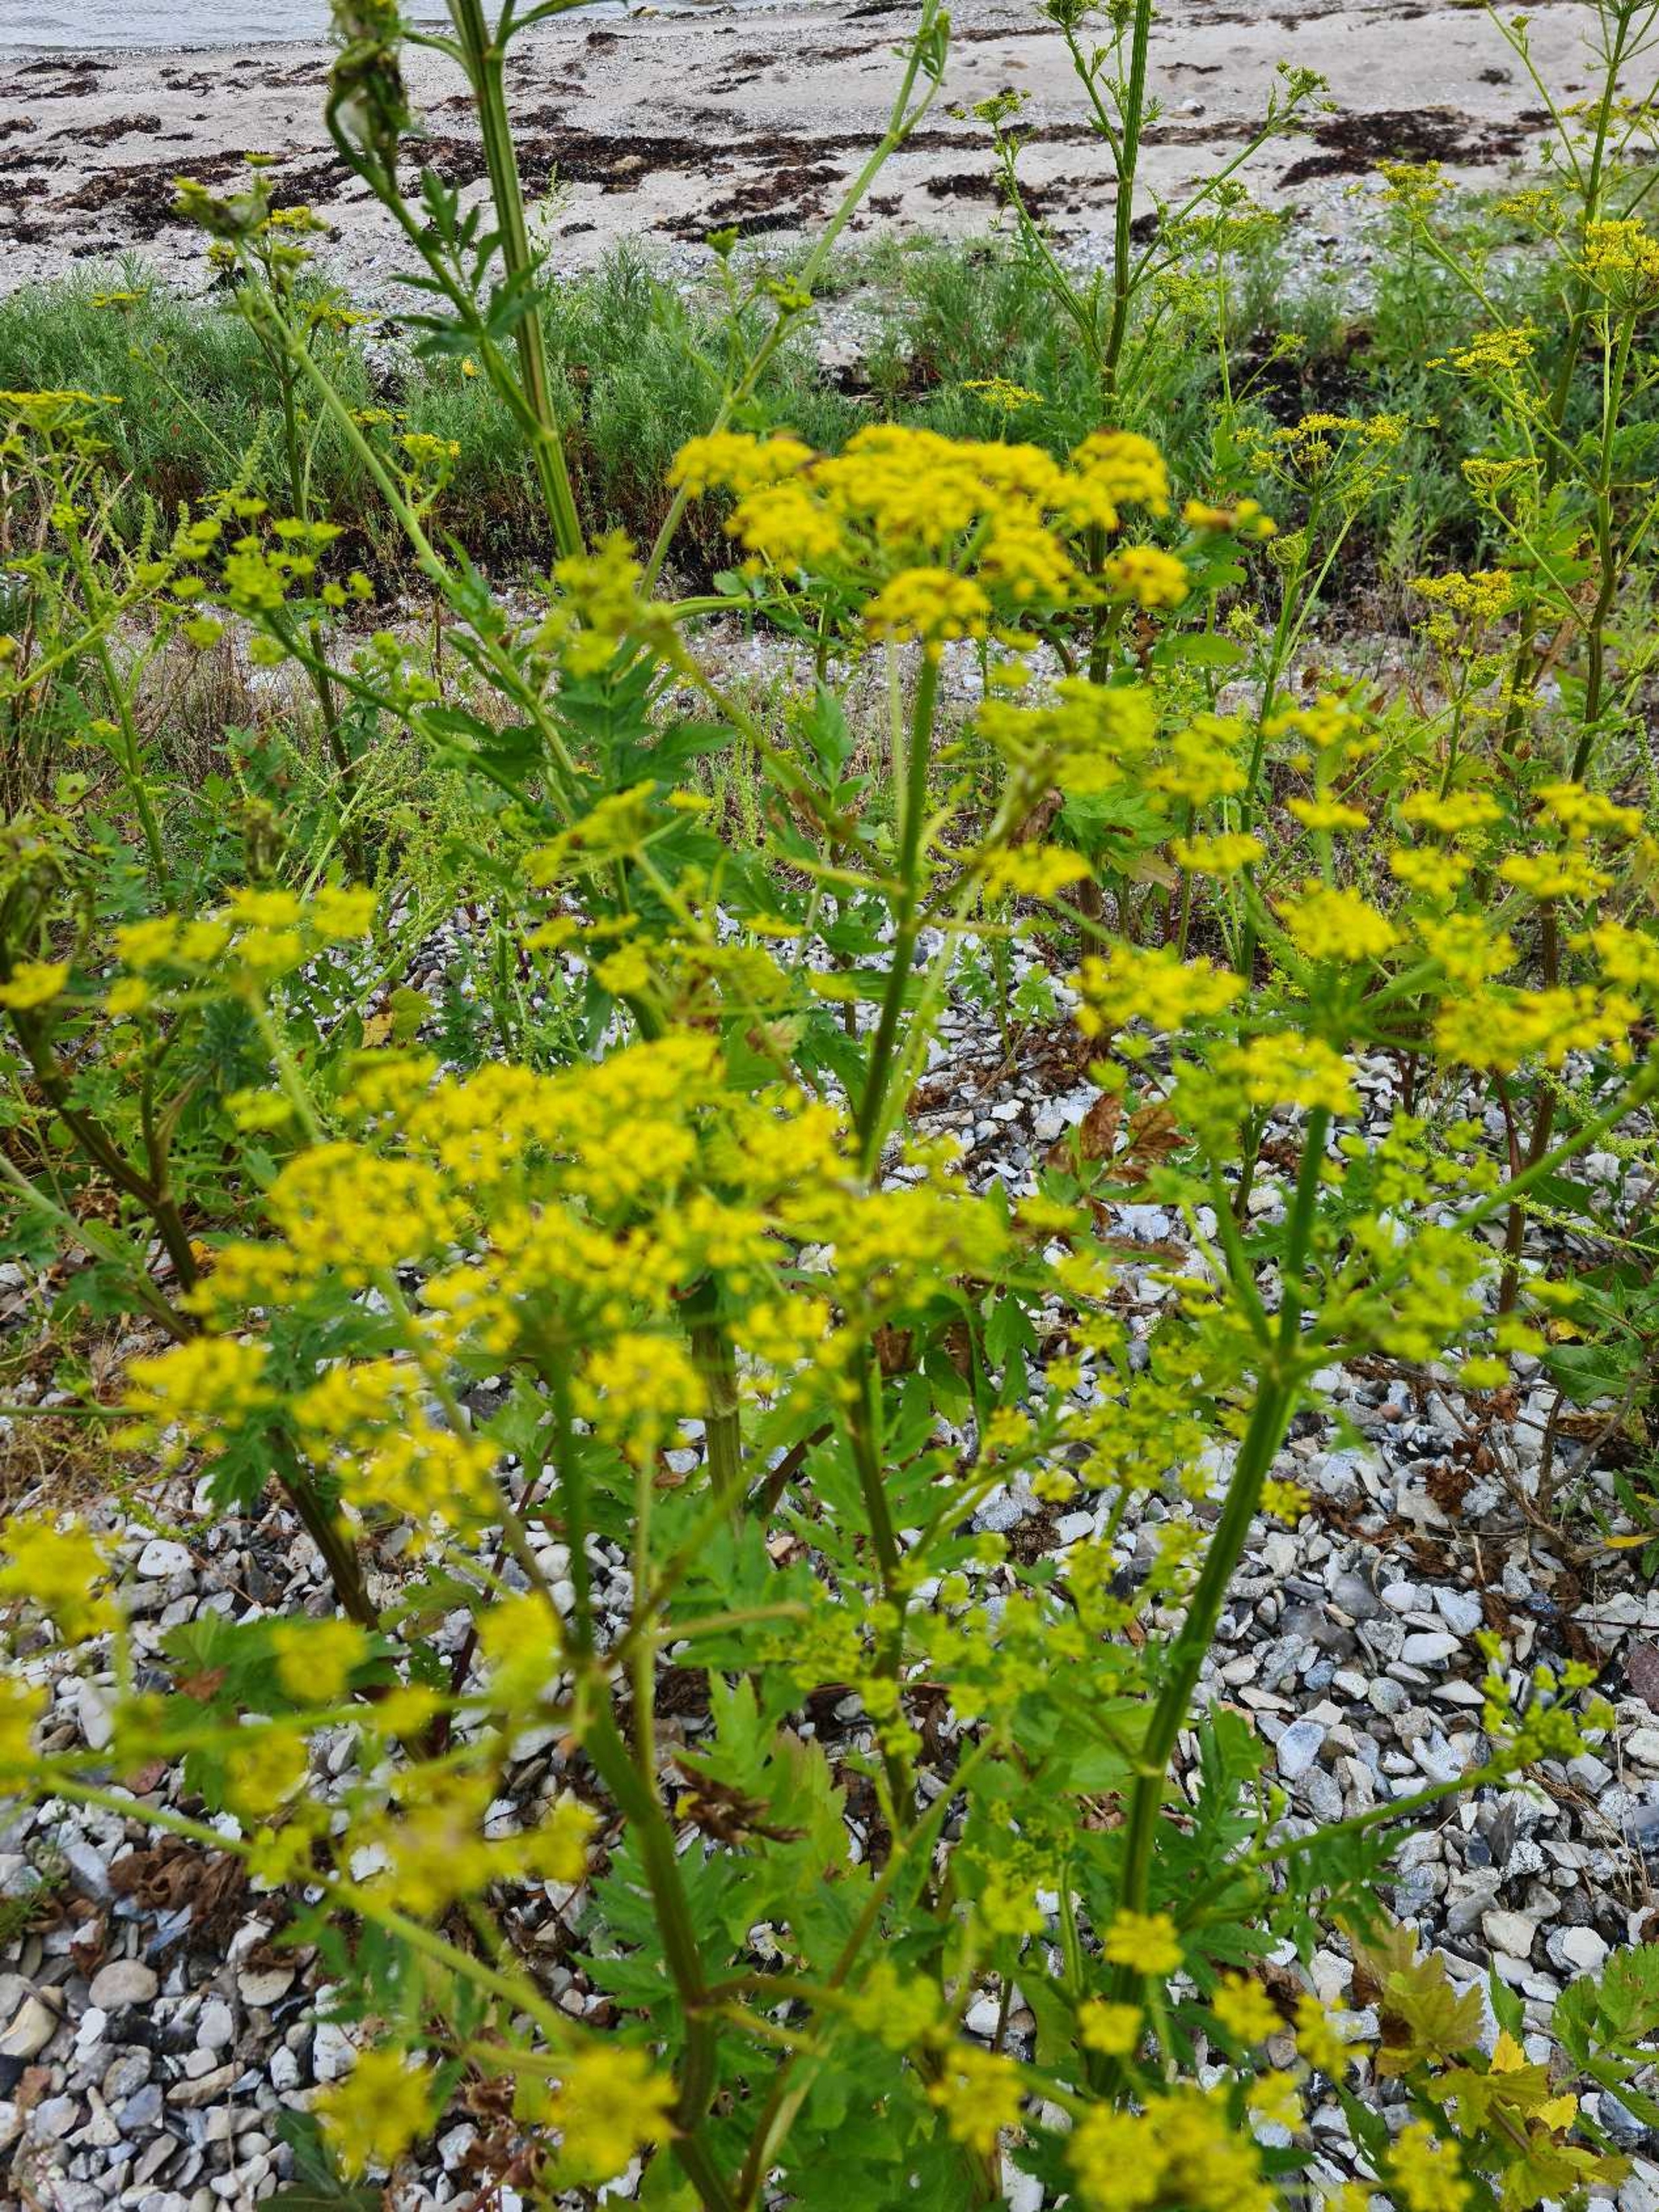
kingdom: Plantae
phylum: Tracheophyta
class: Magnoliopsida
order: Apiales
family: Apiaceae
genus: Pastinaca
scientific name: Pastinaca sativa
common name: Pastinak
